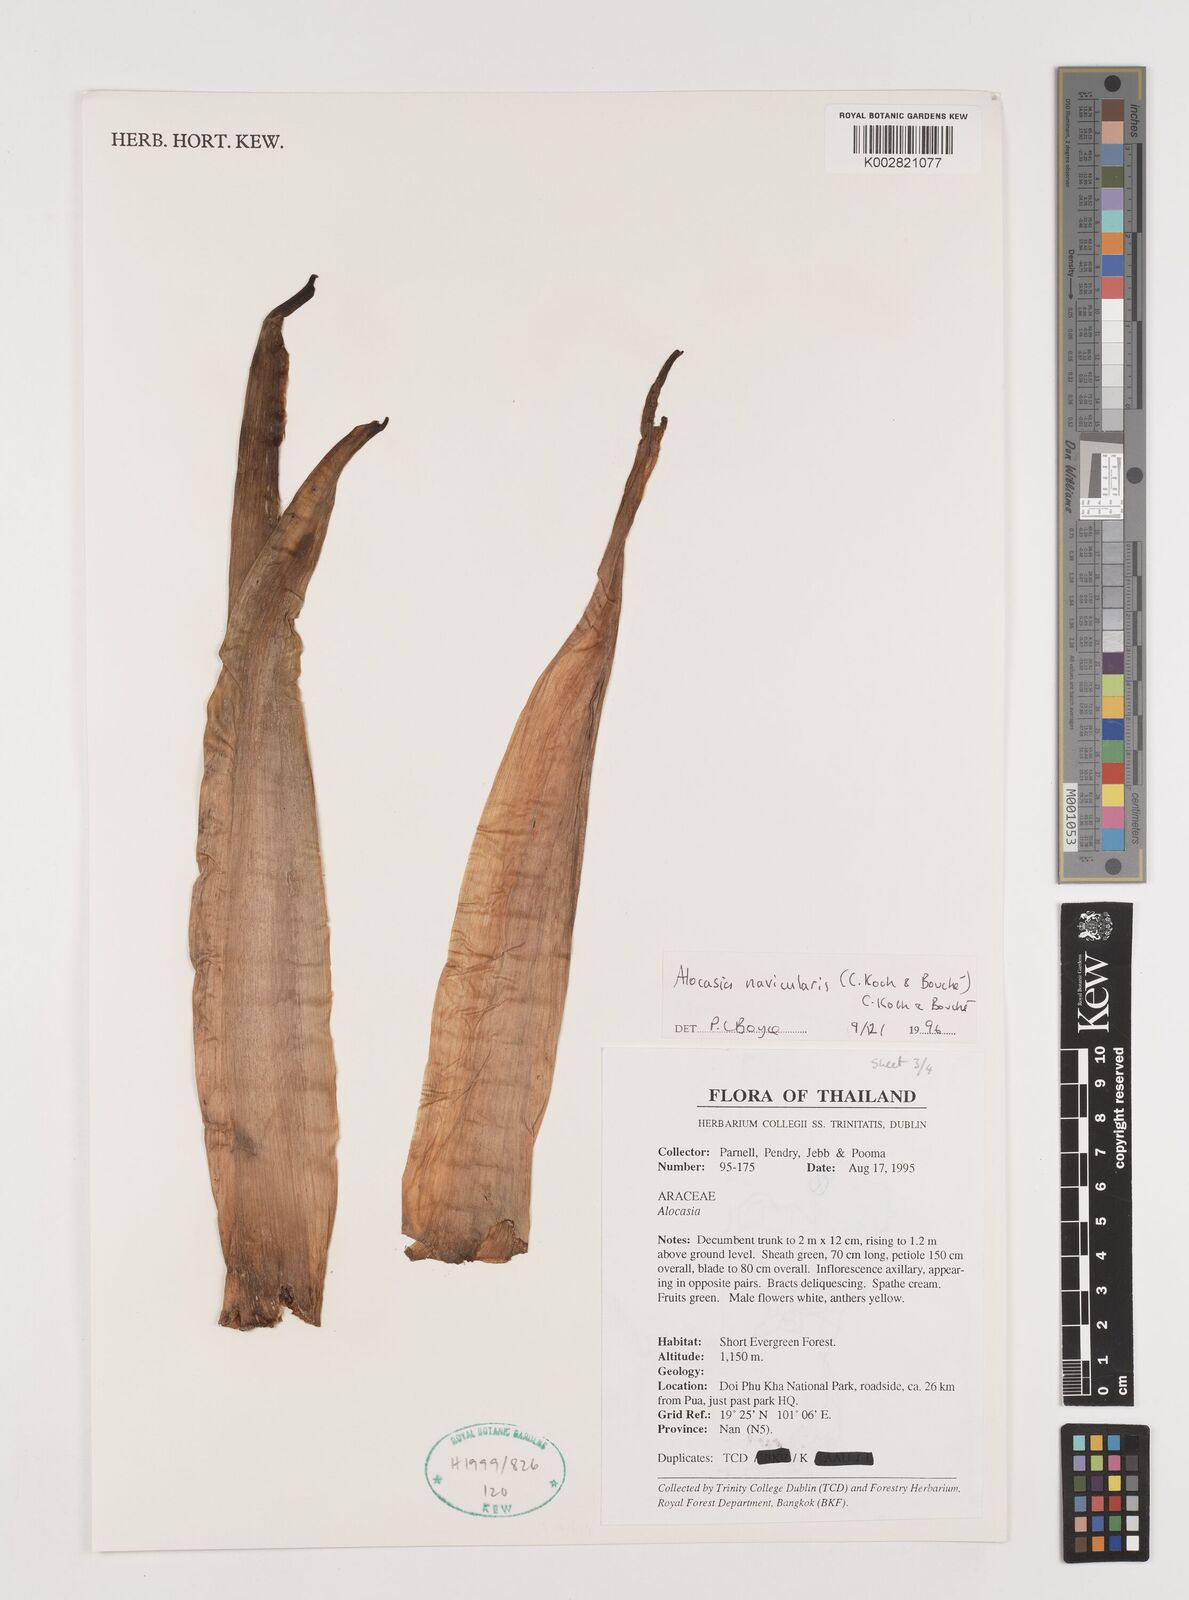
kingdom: Plantae
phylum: Tracheophyta
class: Liliopsida
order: Alismatales
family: Araceae
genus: Alocasia
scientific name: Alocasia navicularis
